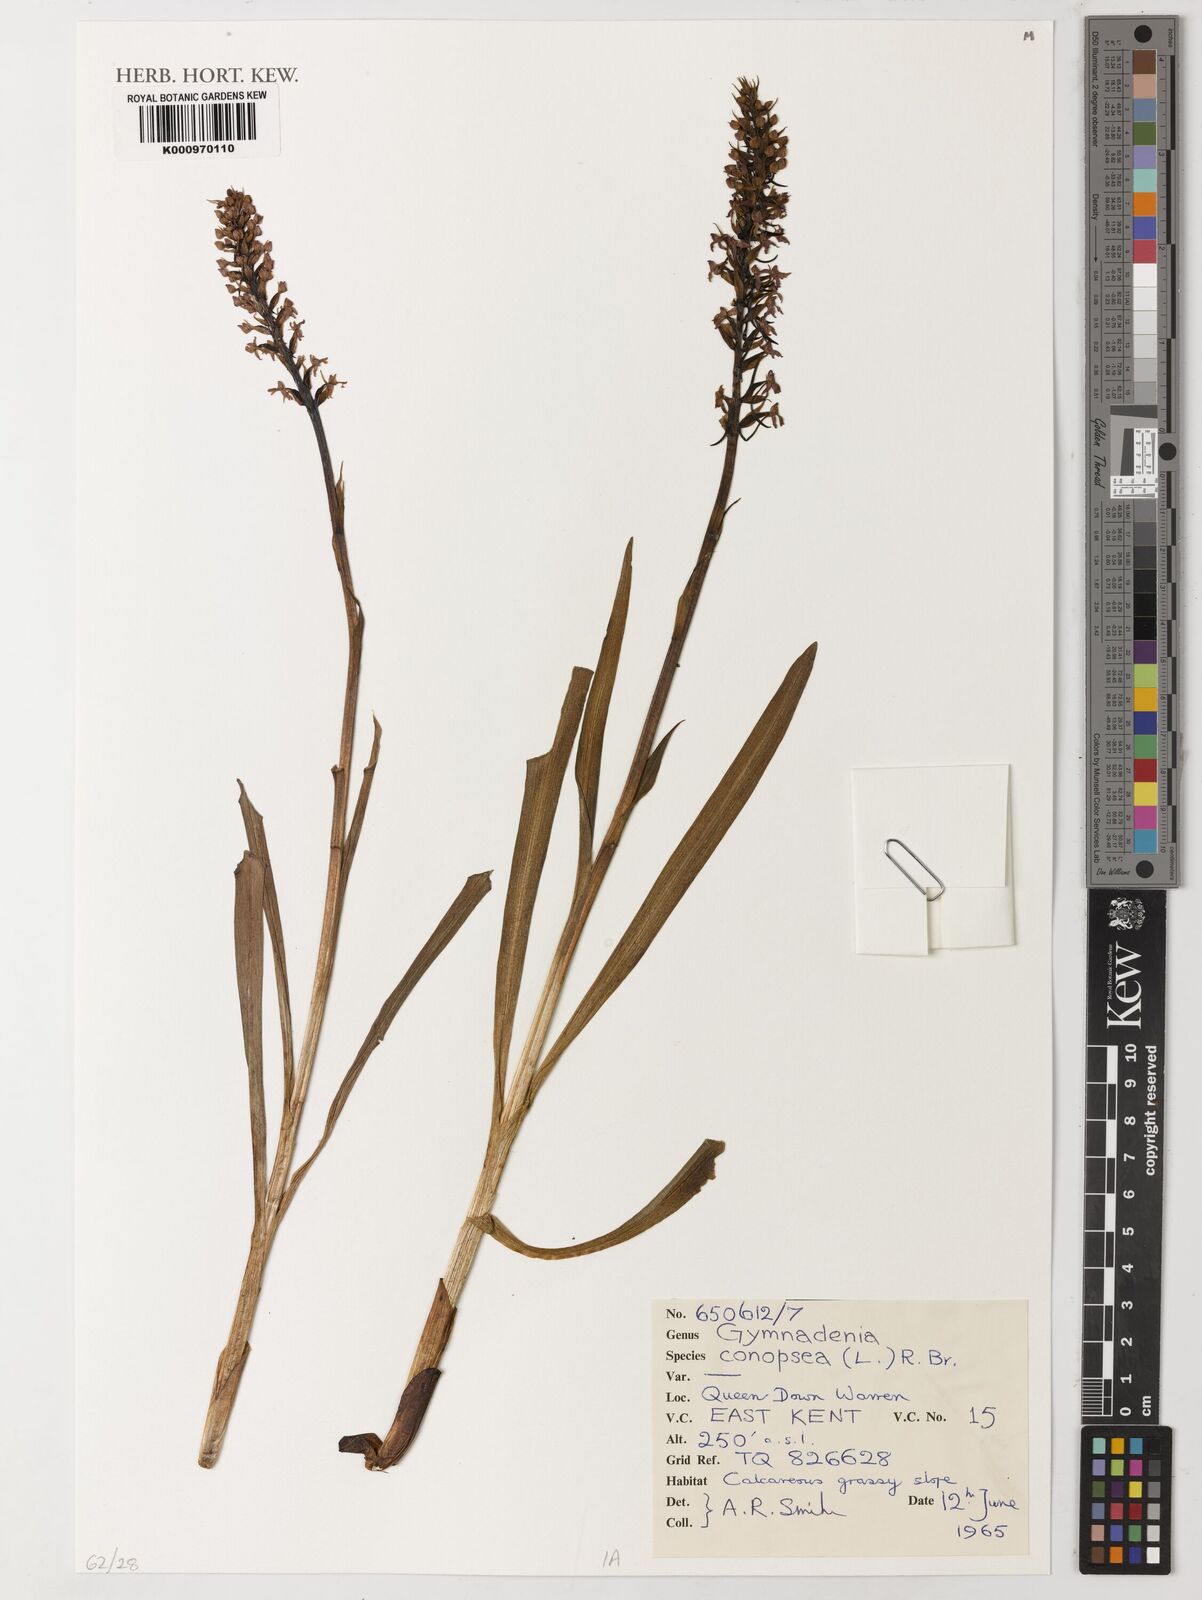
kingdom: Plantae
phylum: Tracheophyta
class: Liliopsida
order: Asparagales
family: Orchidaceae
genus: Gymnadenia
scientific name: Gymnadenia conopsea
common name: Fragrant orchid
